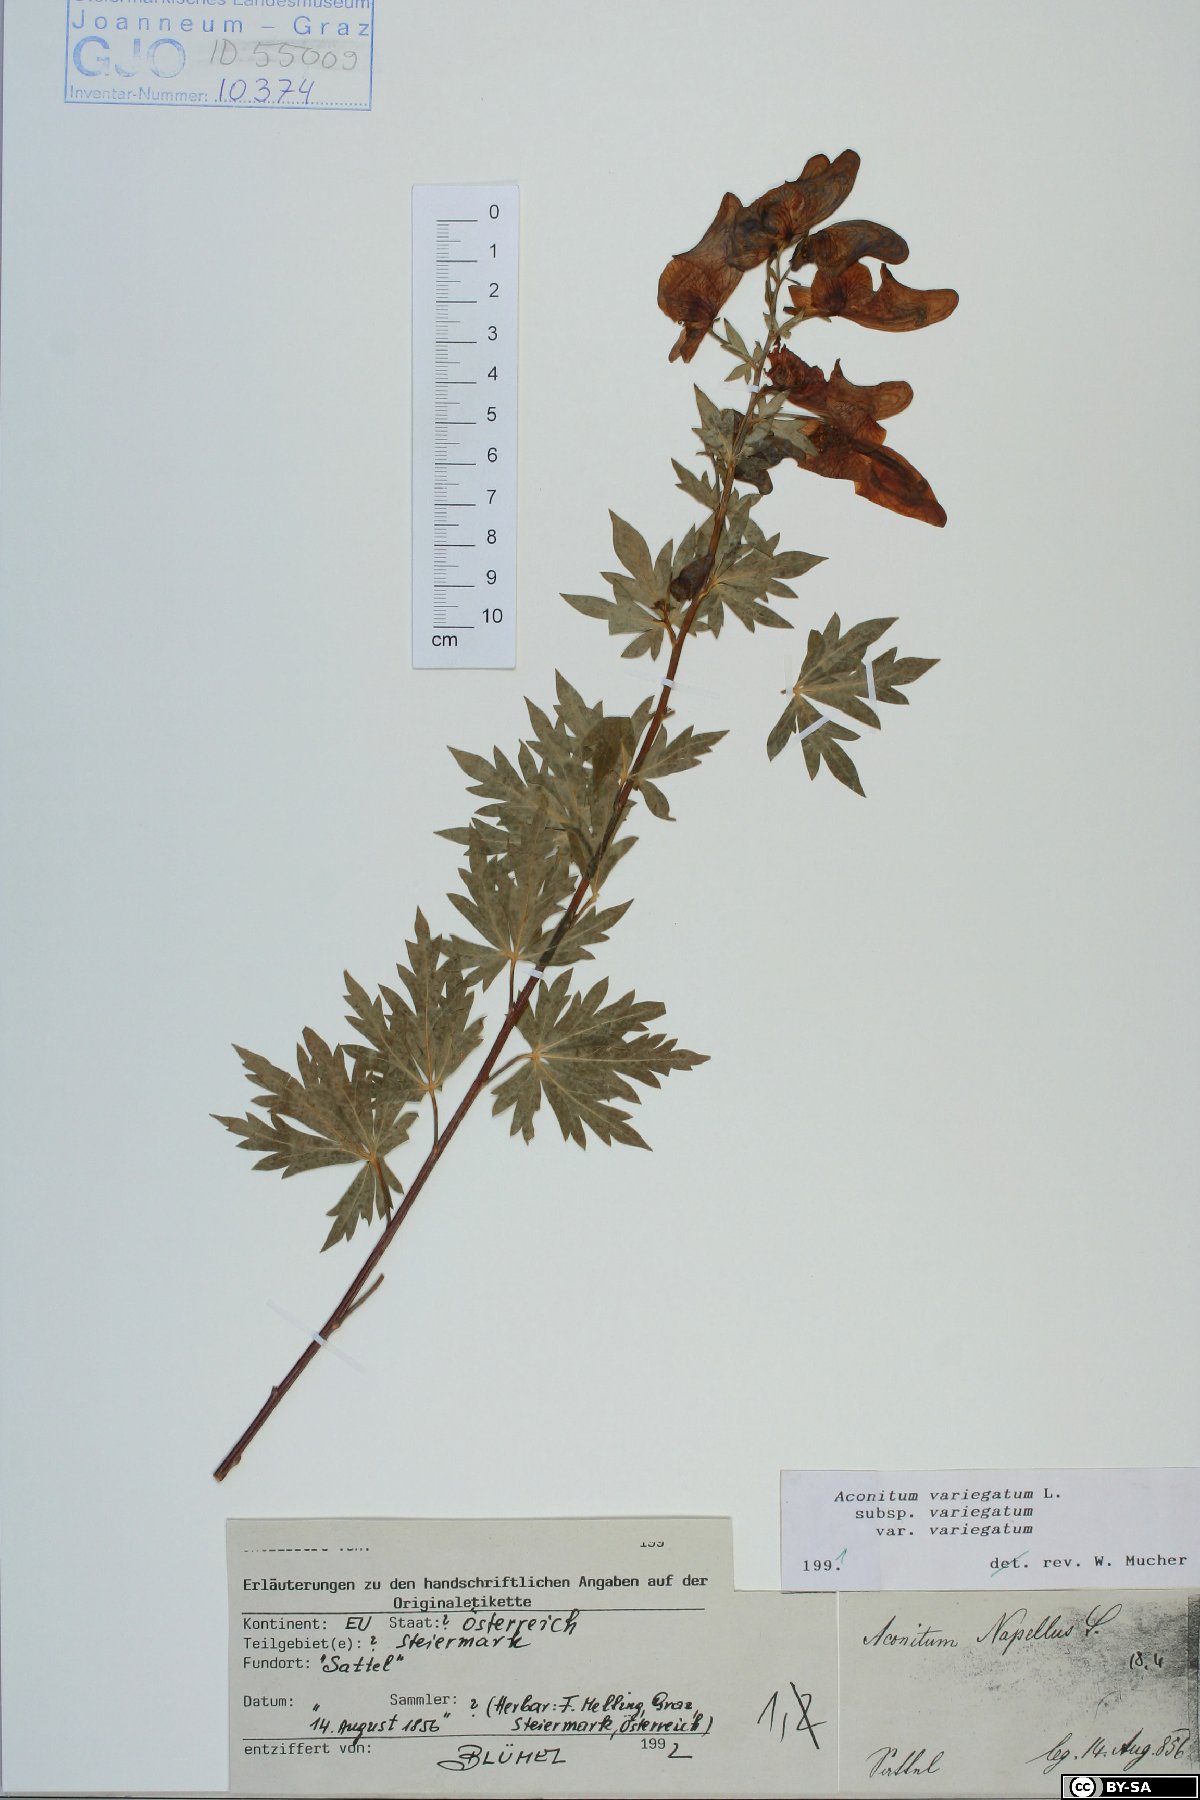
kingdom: Plantae
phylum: Tracheophyta
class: Magnoliopsida
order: Ranunculales
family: Ranunculaceae
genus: Aconitum
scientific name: Aconitum variegatum
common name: Manchurian monkshood
